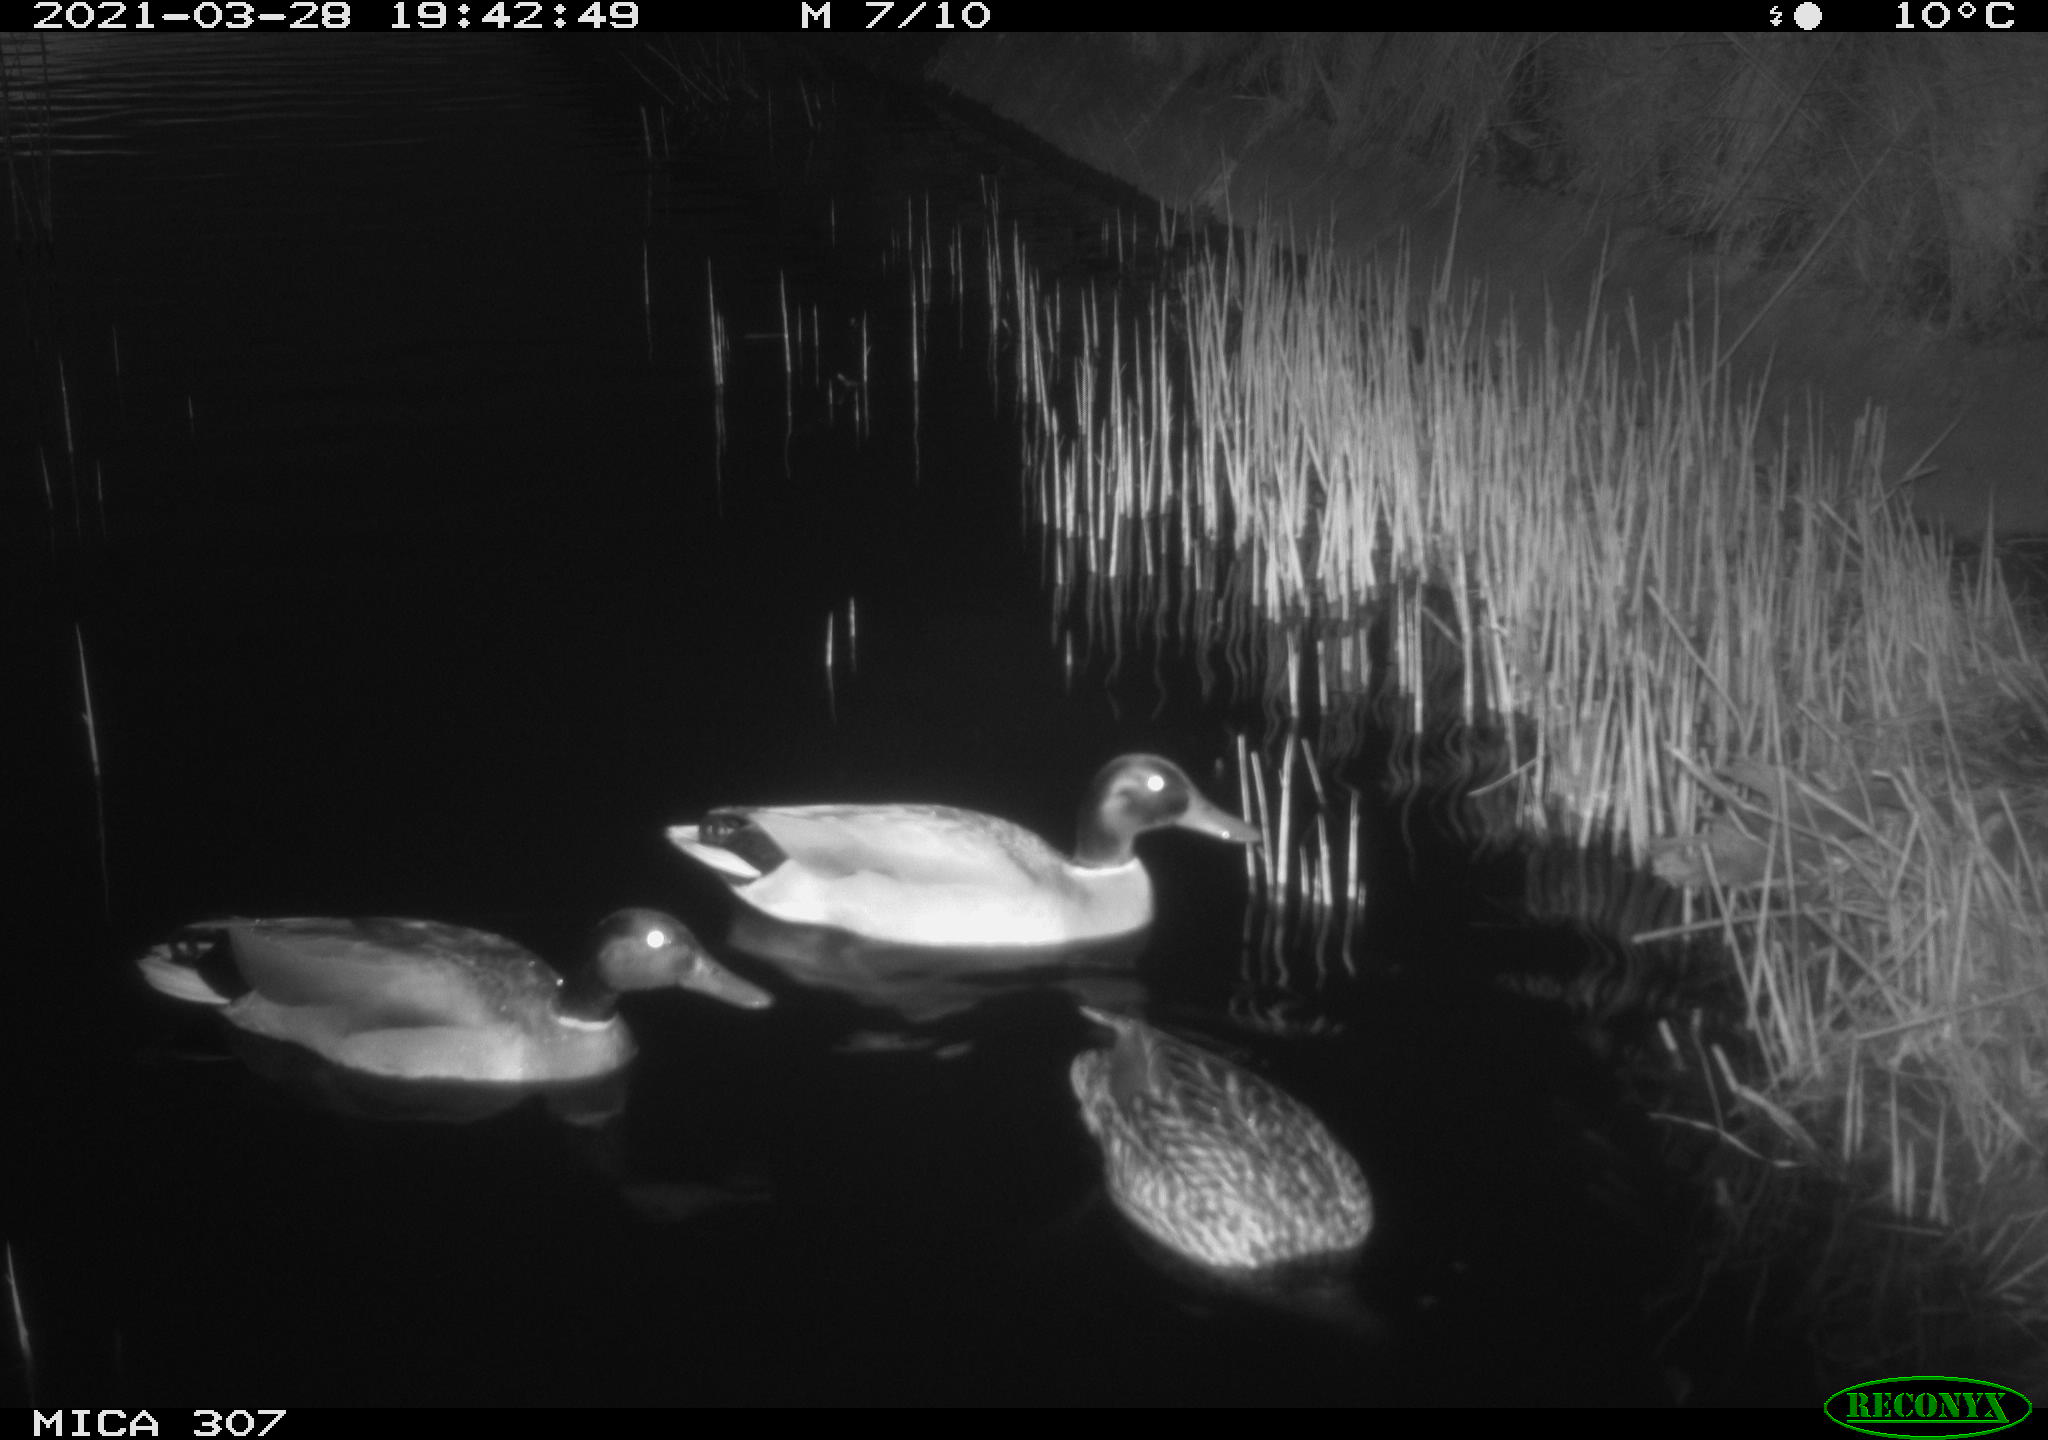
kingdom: Animalia
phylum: Chordata
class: Aves
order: Anseriformes
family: Anatidae
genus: Anas
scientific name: Anas platyrhynchos
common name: Mallard
